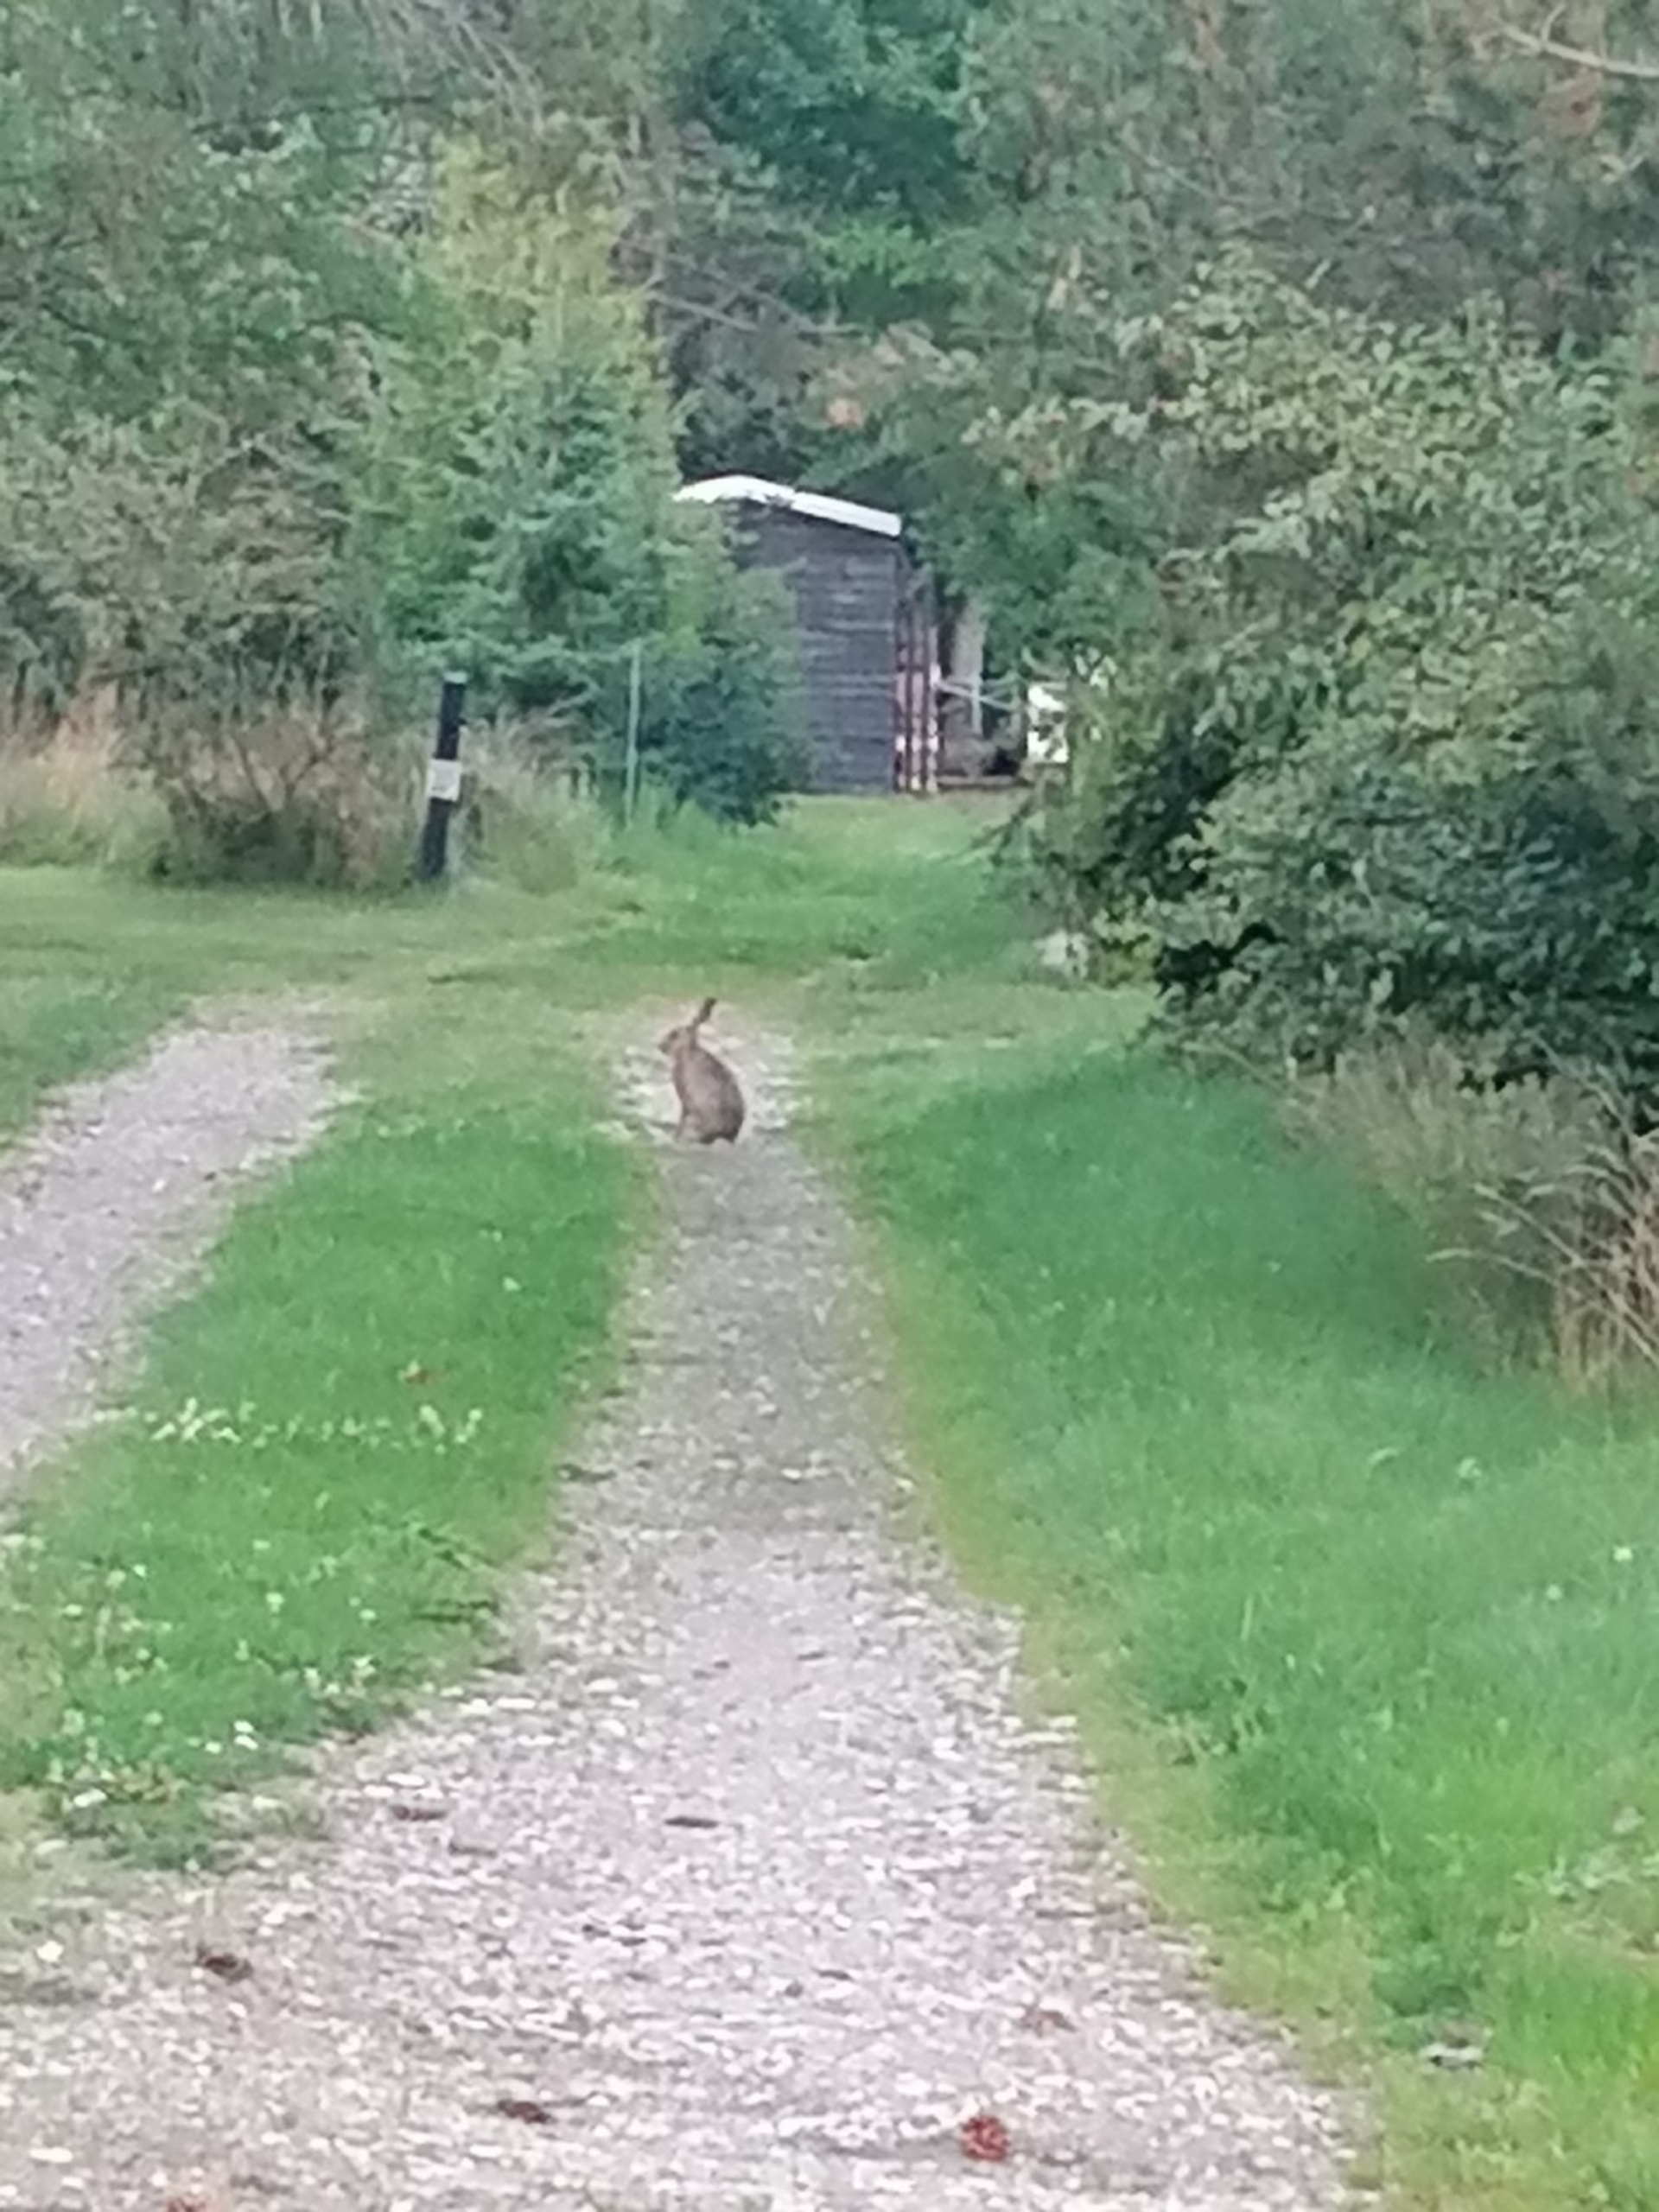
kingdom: Animalia
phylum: Chordata
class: Mammalia
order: Lagomorpha
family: Leporidae
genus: Lepus
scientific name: Lepus europaeus
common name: Hare
